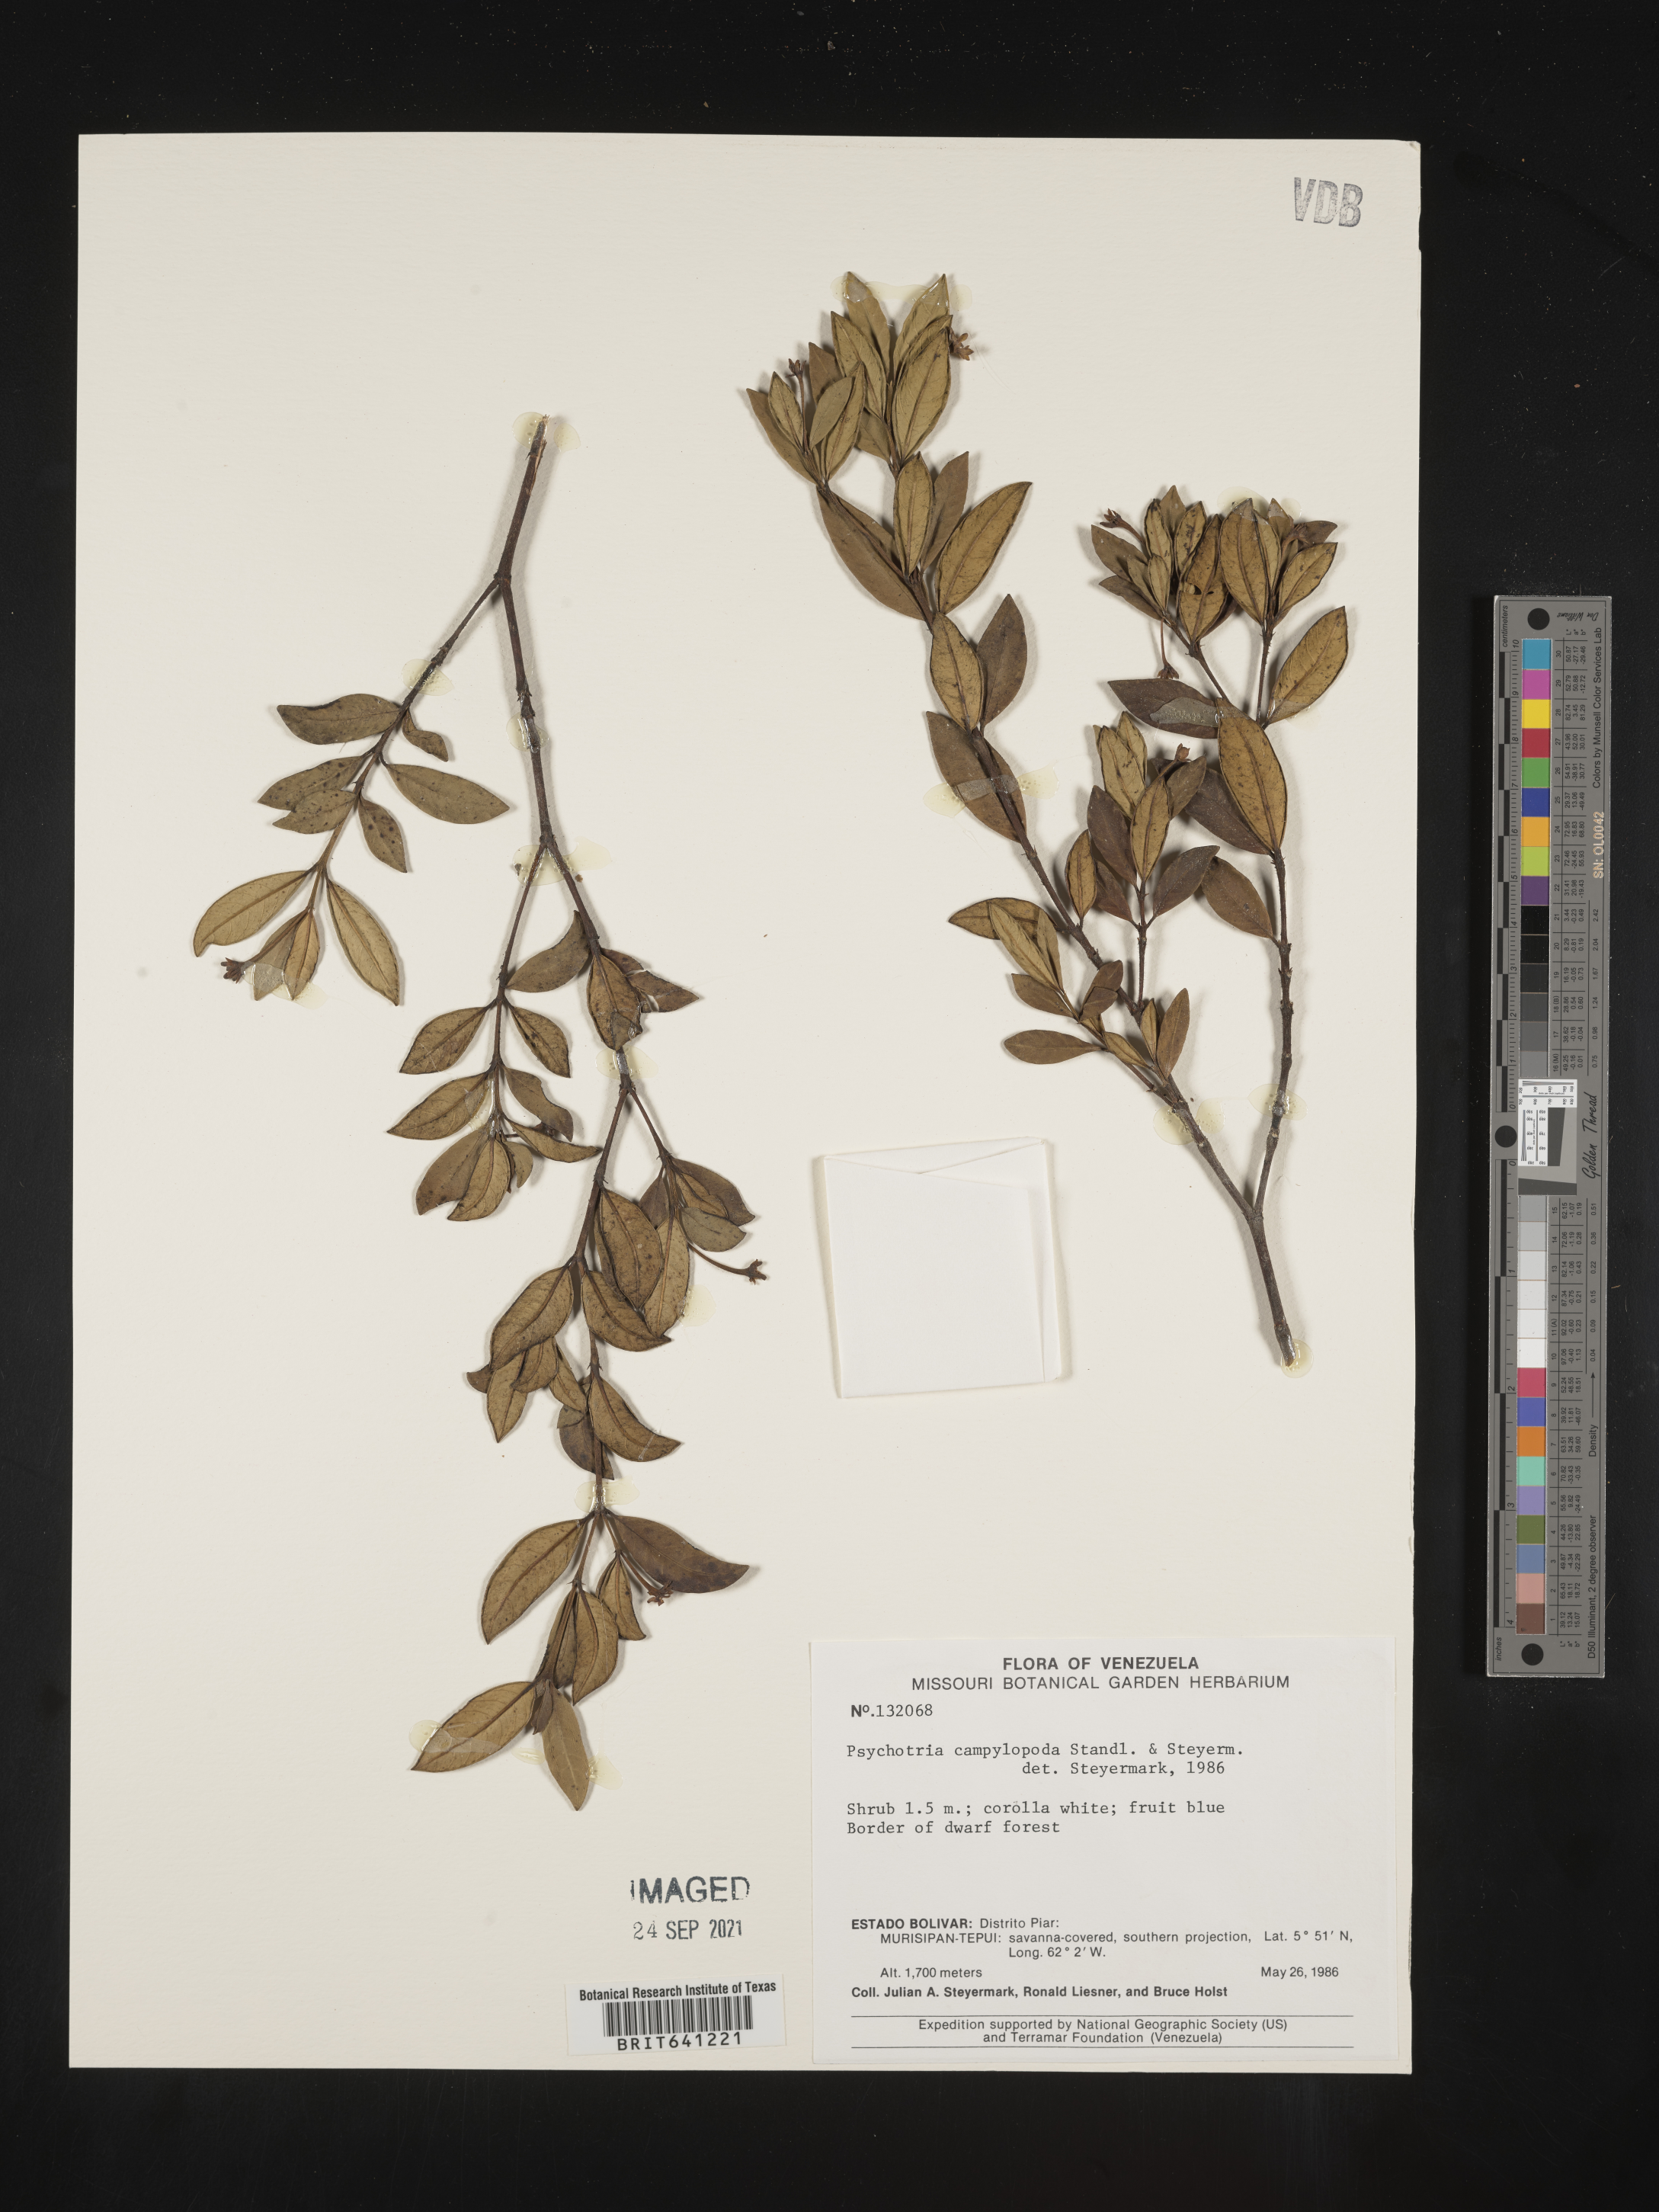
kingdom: Plantae
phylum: Tracheophyta
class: Magnoliopsida
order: Gentianales
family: Rubiaceae
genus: Psychotria
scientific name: Psychotria
